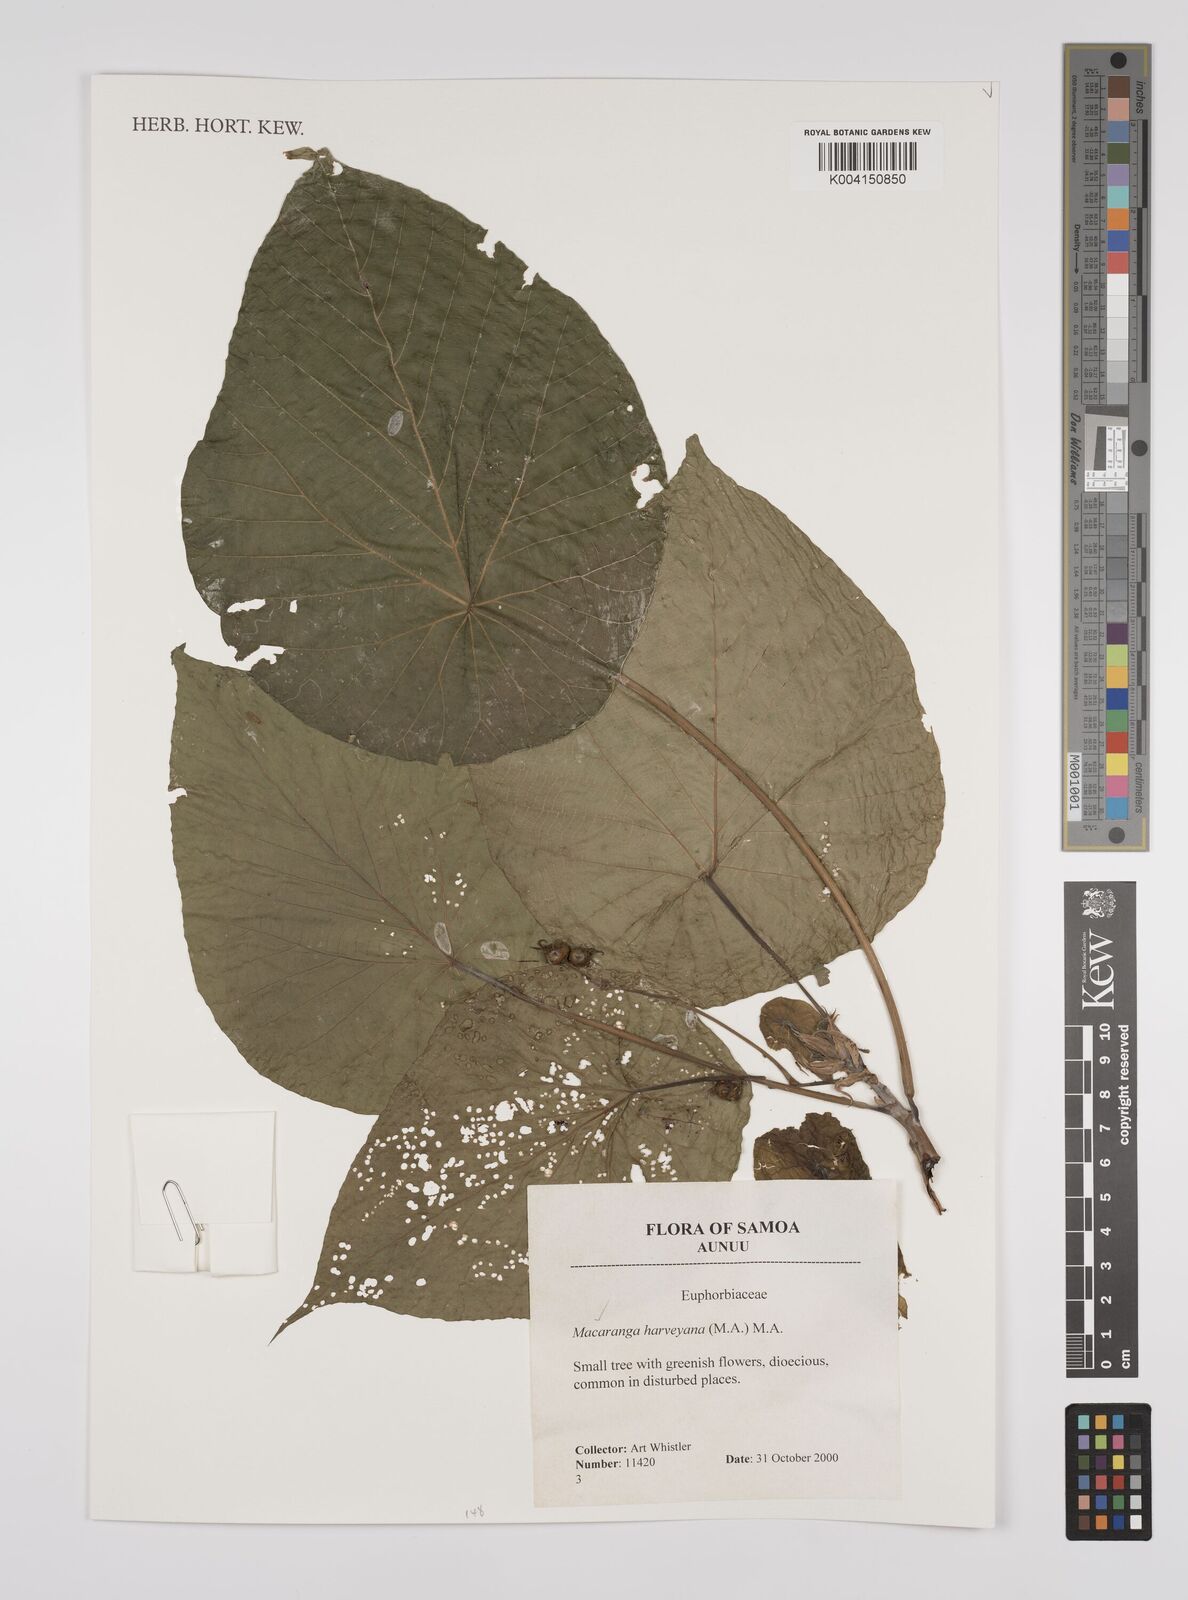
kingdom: Plantae
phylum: Tracheophyta
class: Magnoliopsida
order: Malpighiales
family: Euphorbiaceae
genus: Macaranga
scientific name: Macaranga harveyana
